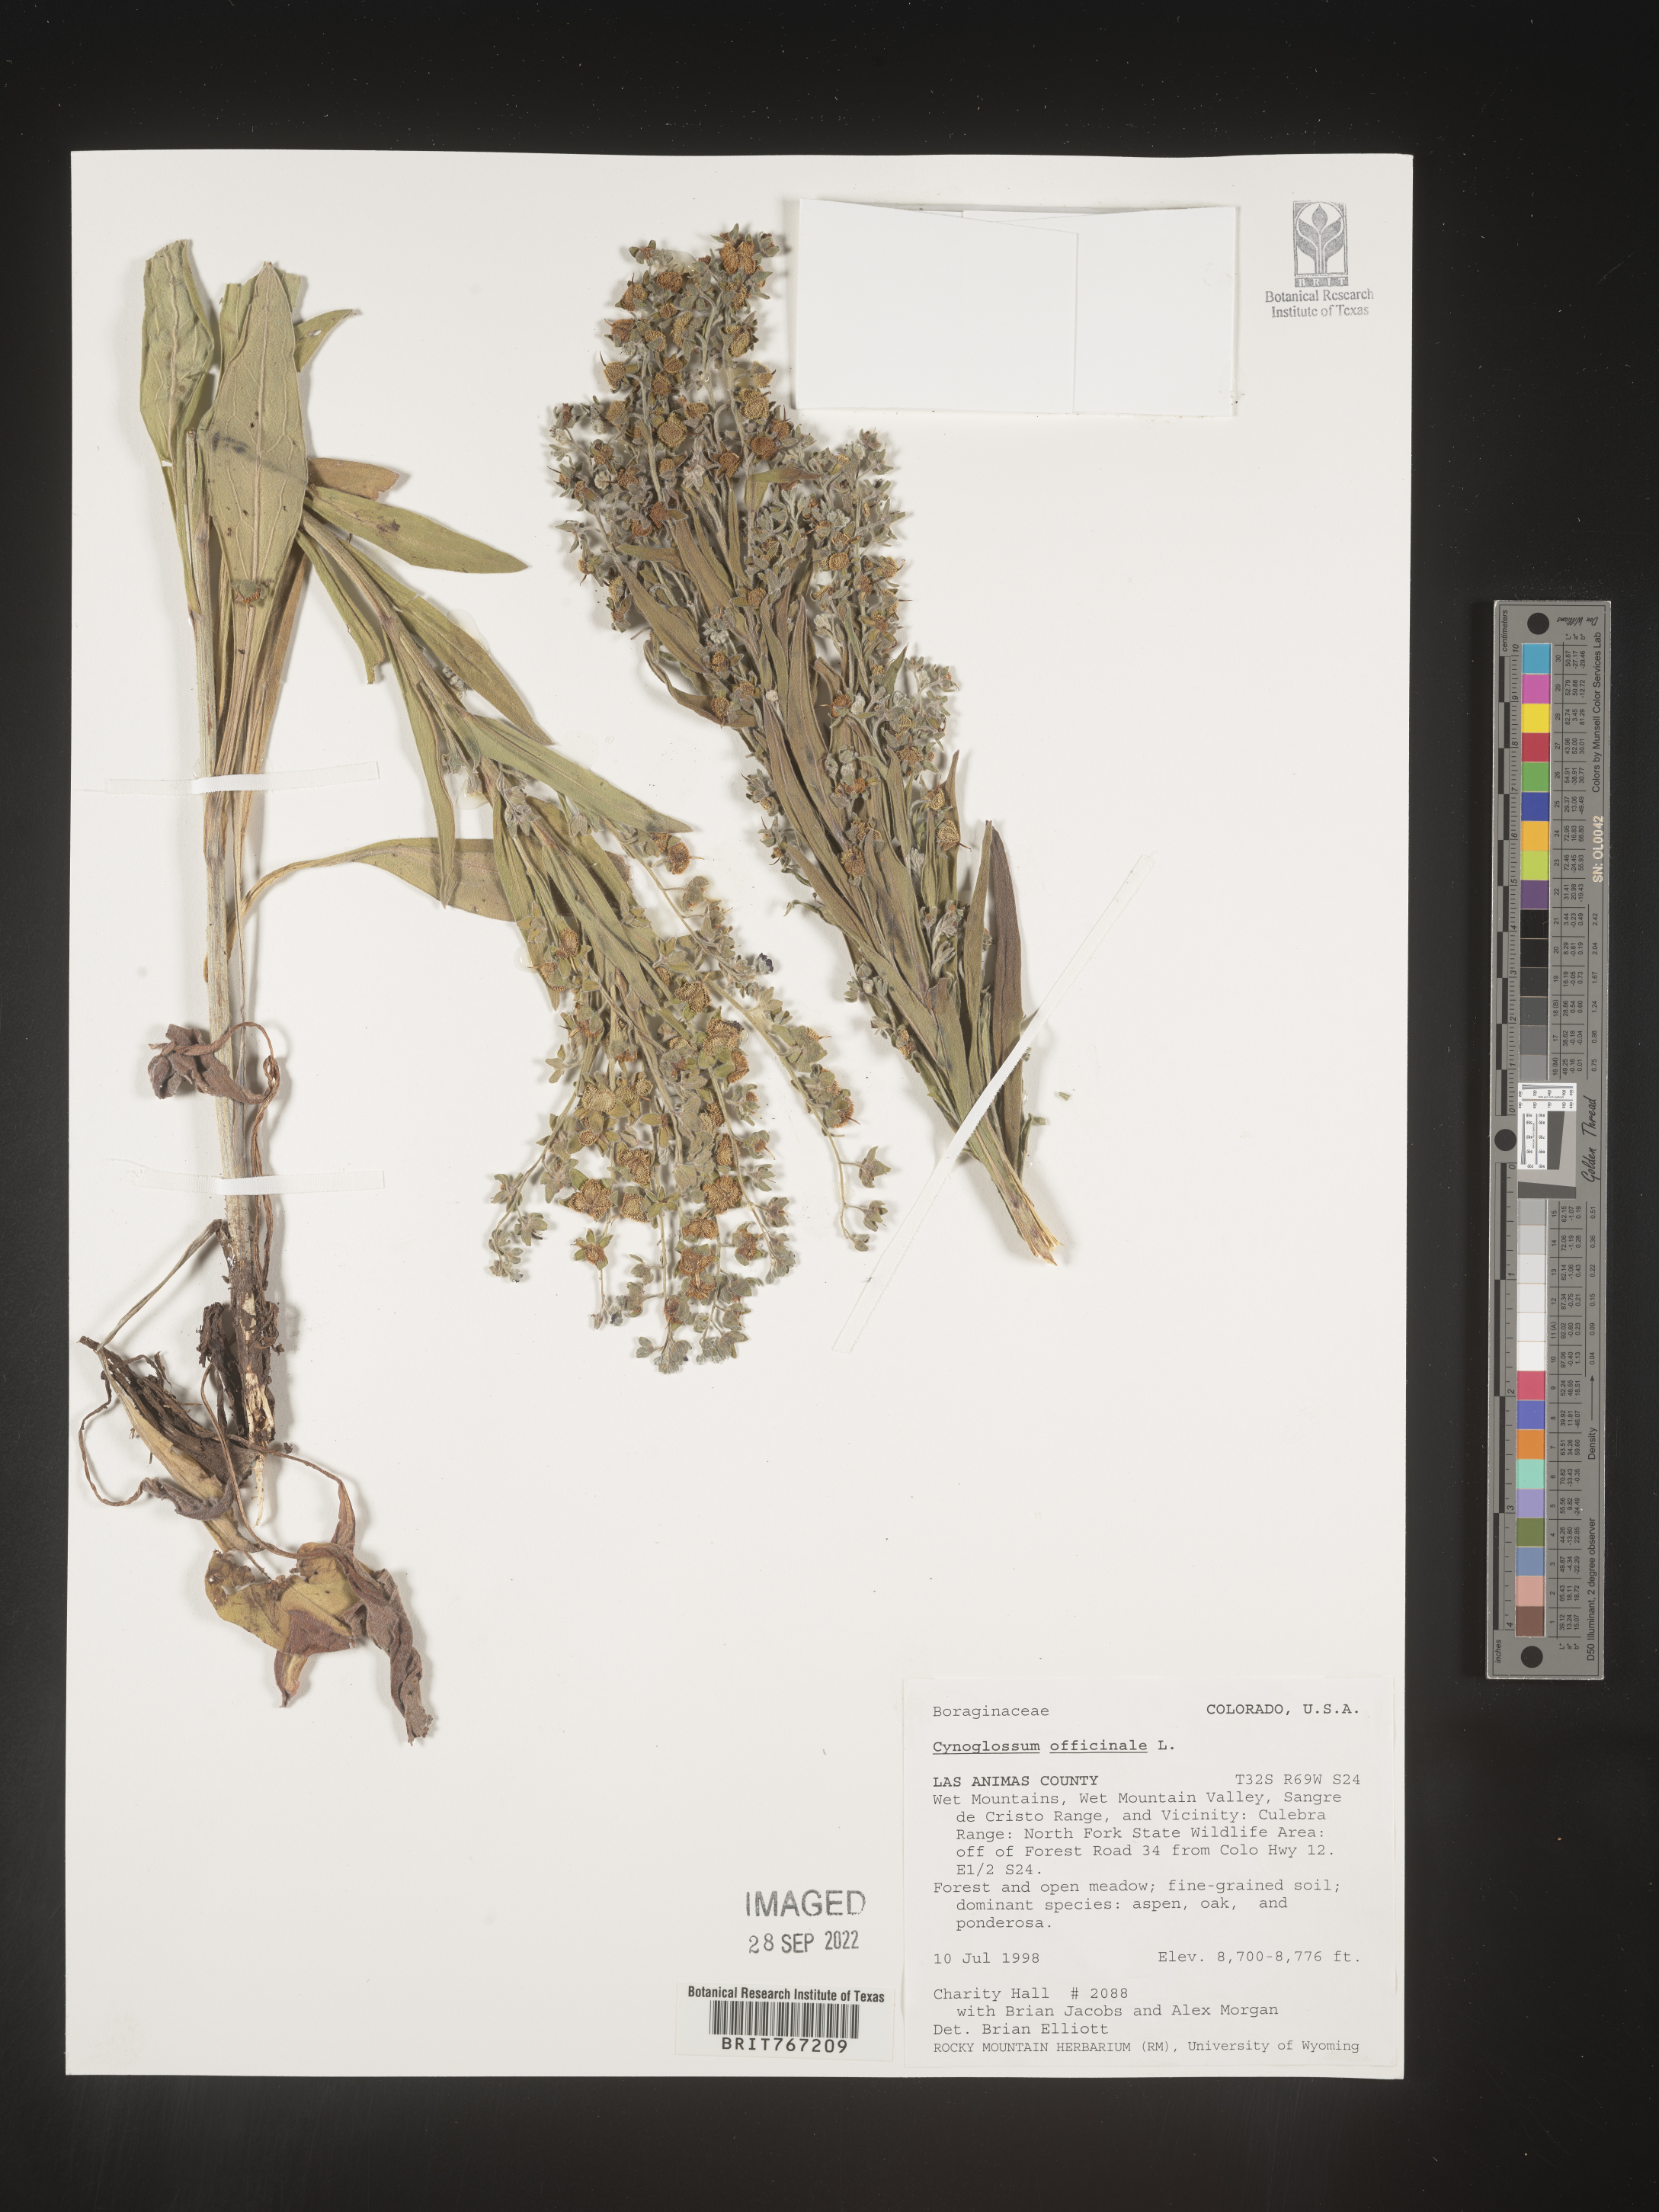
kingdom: Plantae
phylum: Tracheophyta
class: Magnoliopsida
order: Boraginales
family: Boraginaceae
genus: Cynoglossum
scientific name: Cynoglossum officinale
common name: Hound's-tongue
